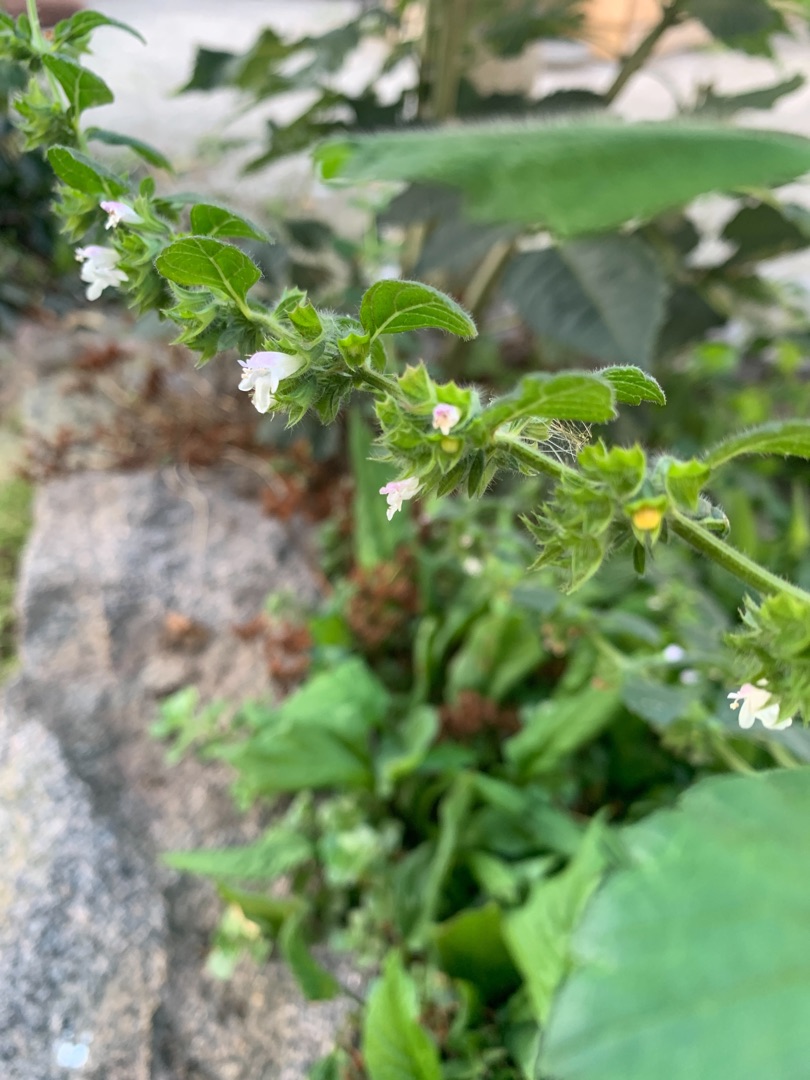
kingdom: Plantae
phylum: Tracheophyta
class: Magnoliopsida
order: Lamiales
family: Lamiaceae
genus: Melissa
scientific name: Melissa officinalis
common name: Citronmelisse
